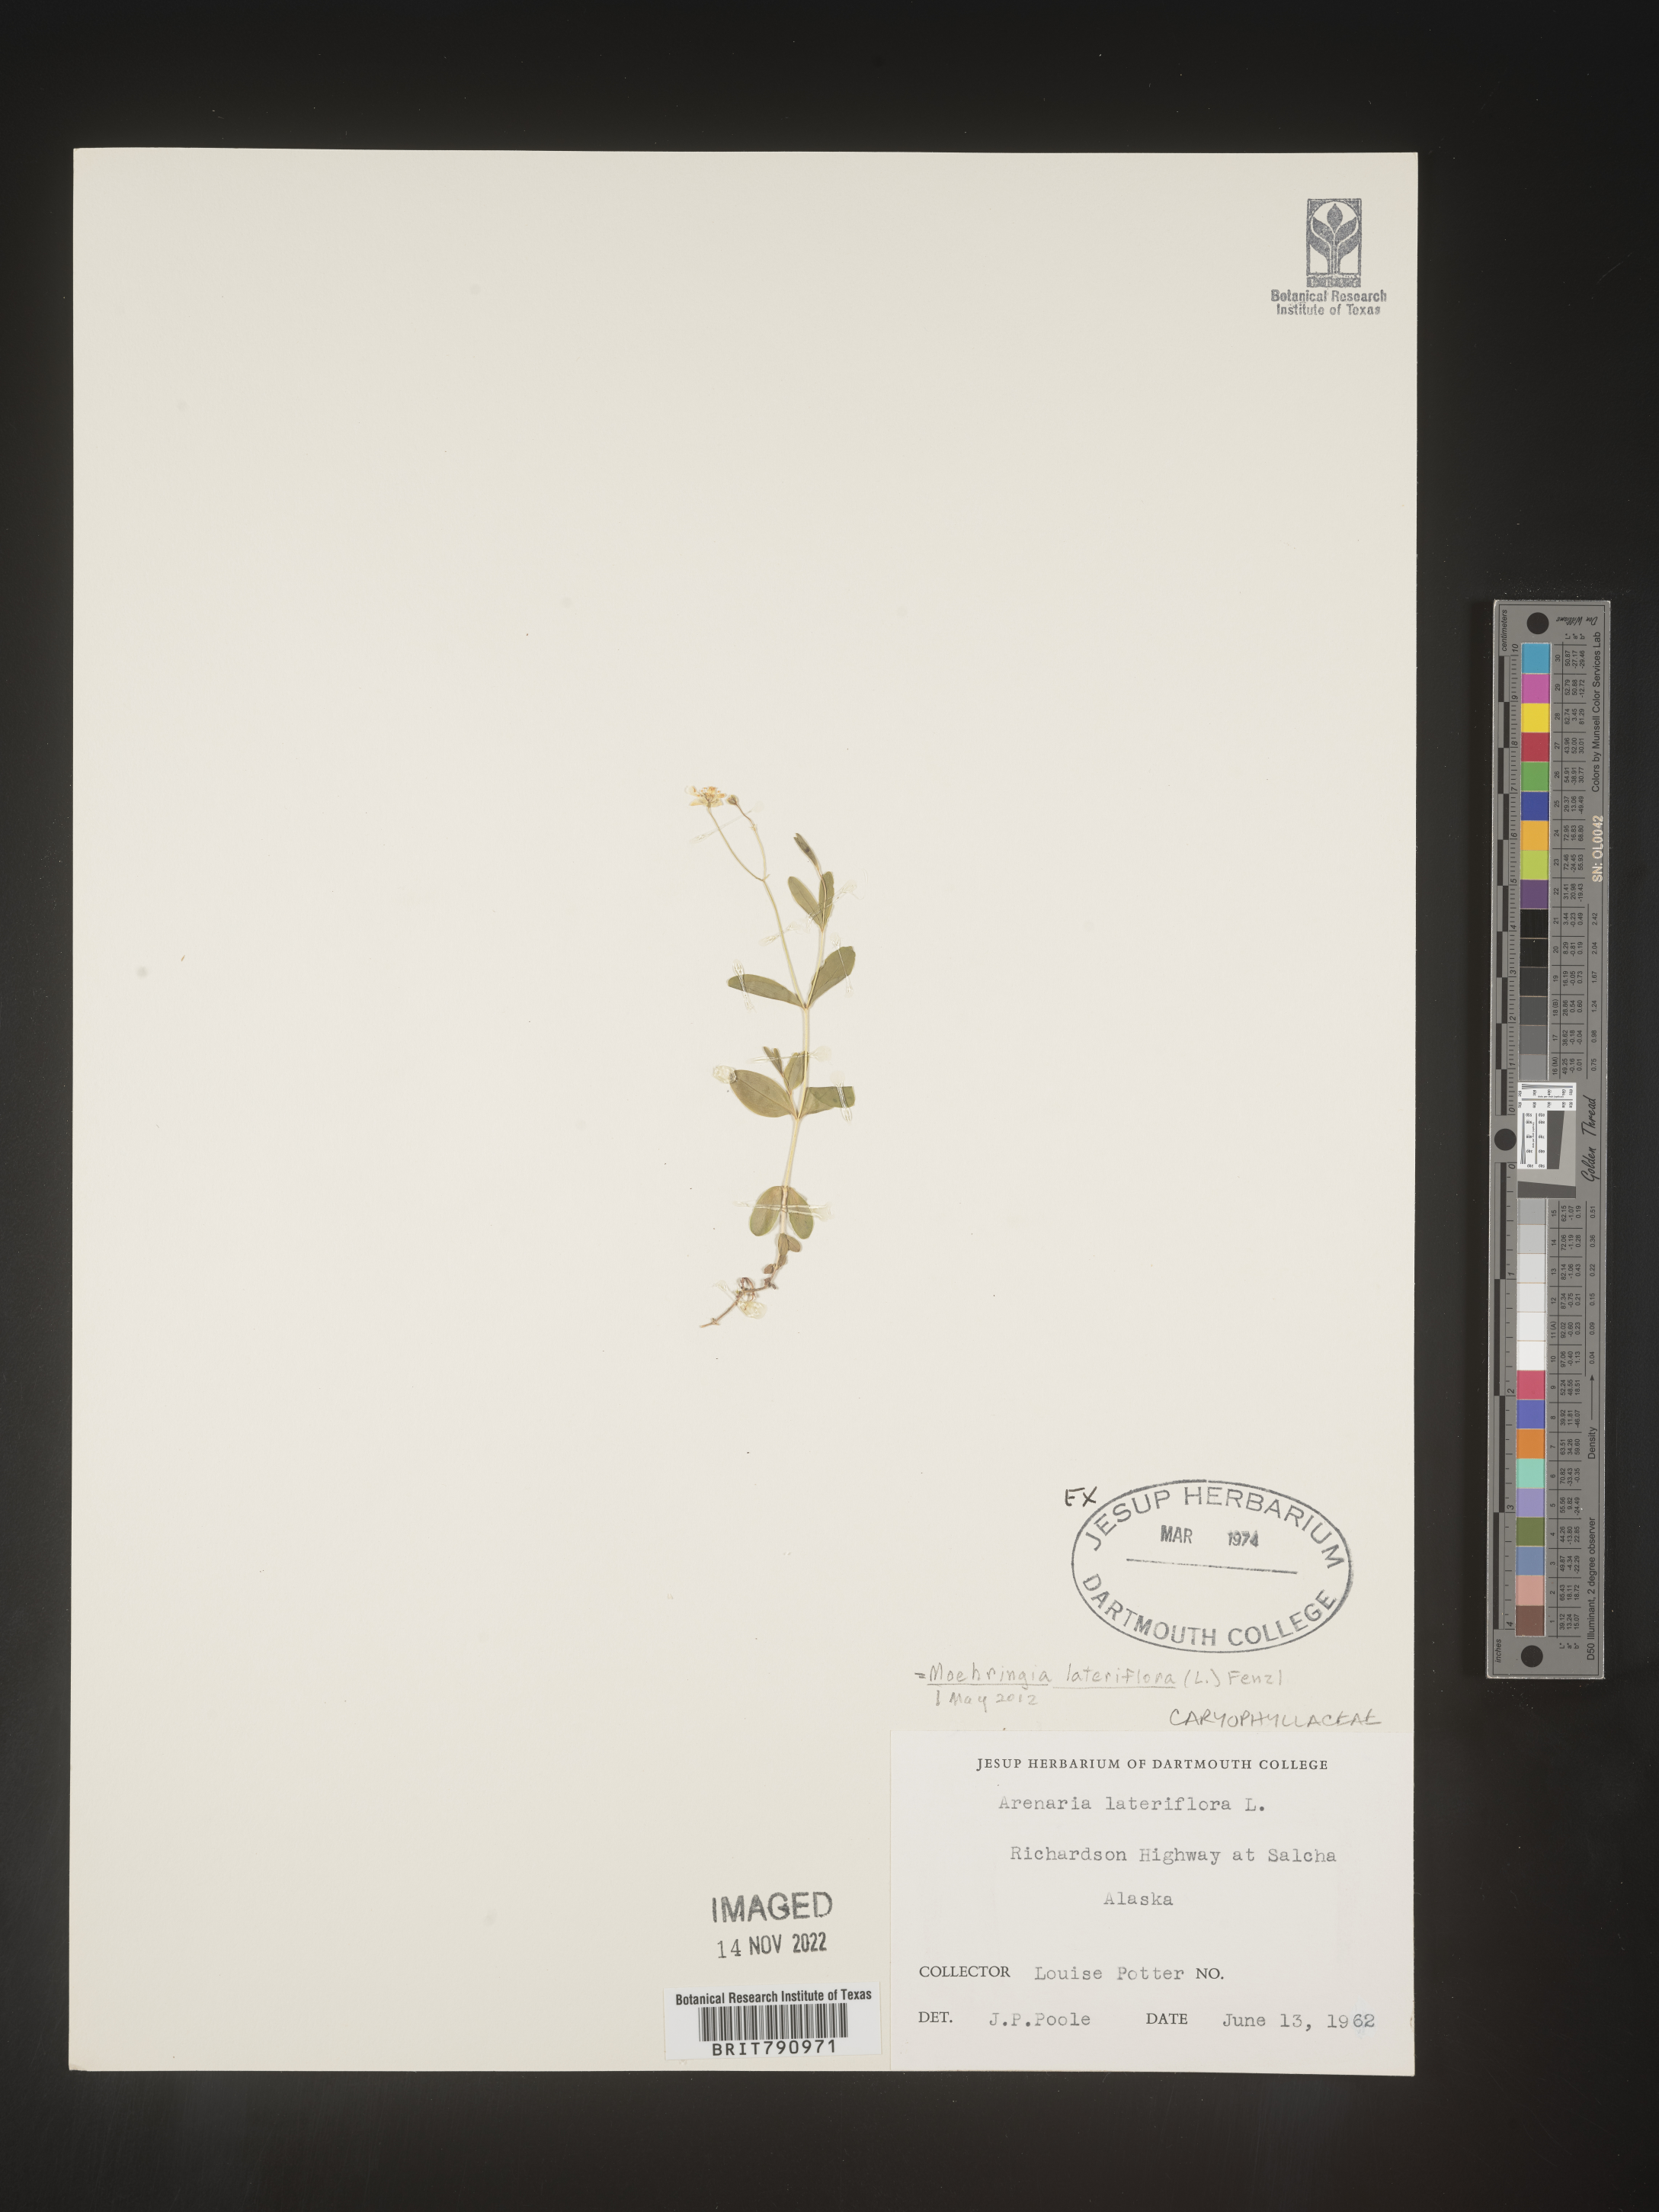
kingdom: Plantae
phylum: Tracheophyta
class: Magnoliopsida
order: Caryophyllales
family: Caryophyllaceae
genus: Moehringia
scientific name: Moehringia
